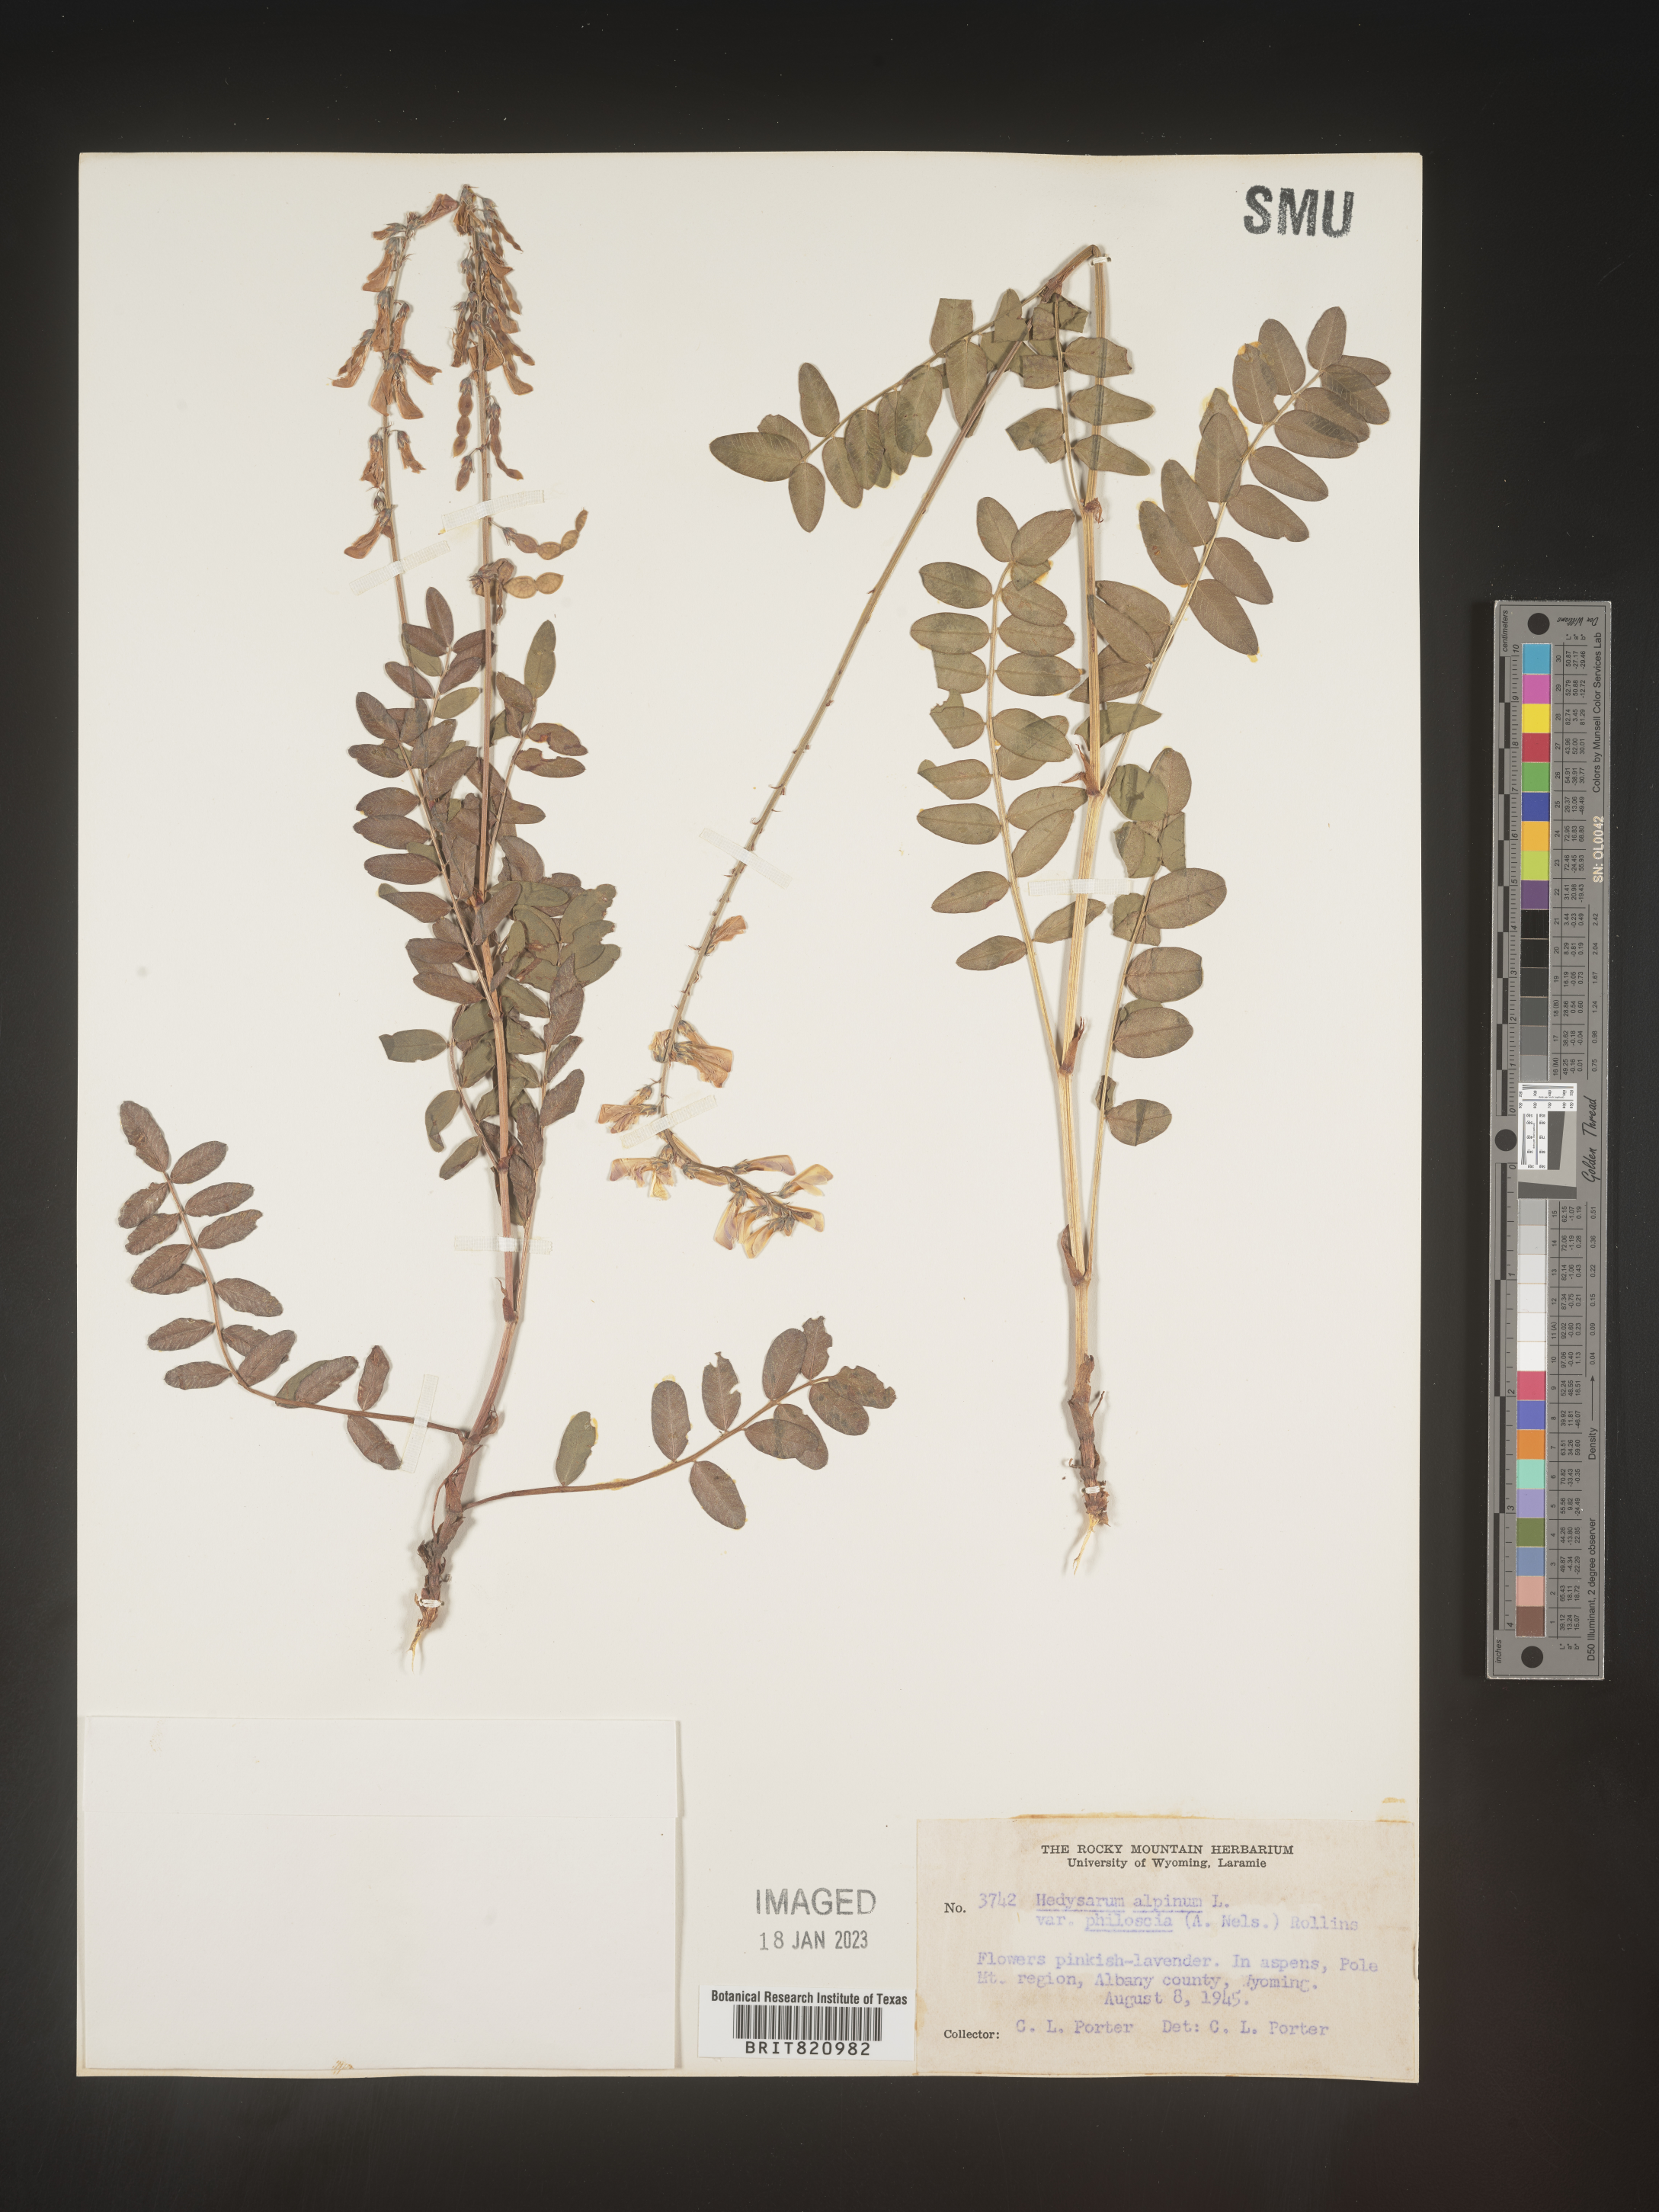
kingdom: Plantae
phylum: Tracheophyta
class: Magnoliopsida
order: Fabales
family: Fabaceae
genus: Hedysarum
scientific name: Hedysarum alpinum
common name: Alpine sweet-vetch
